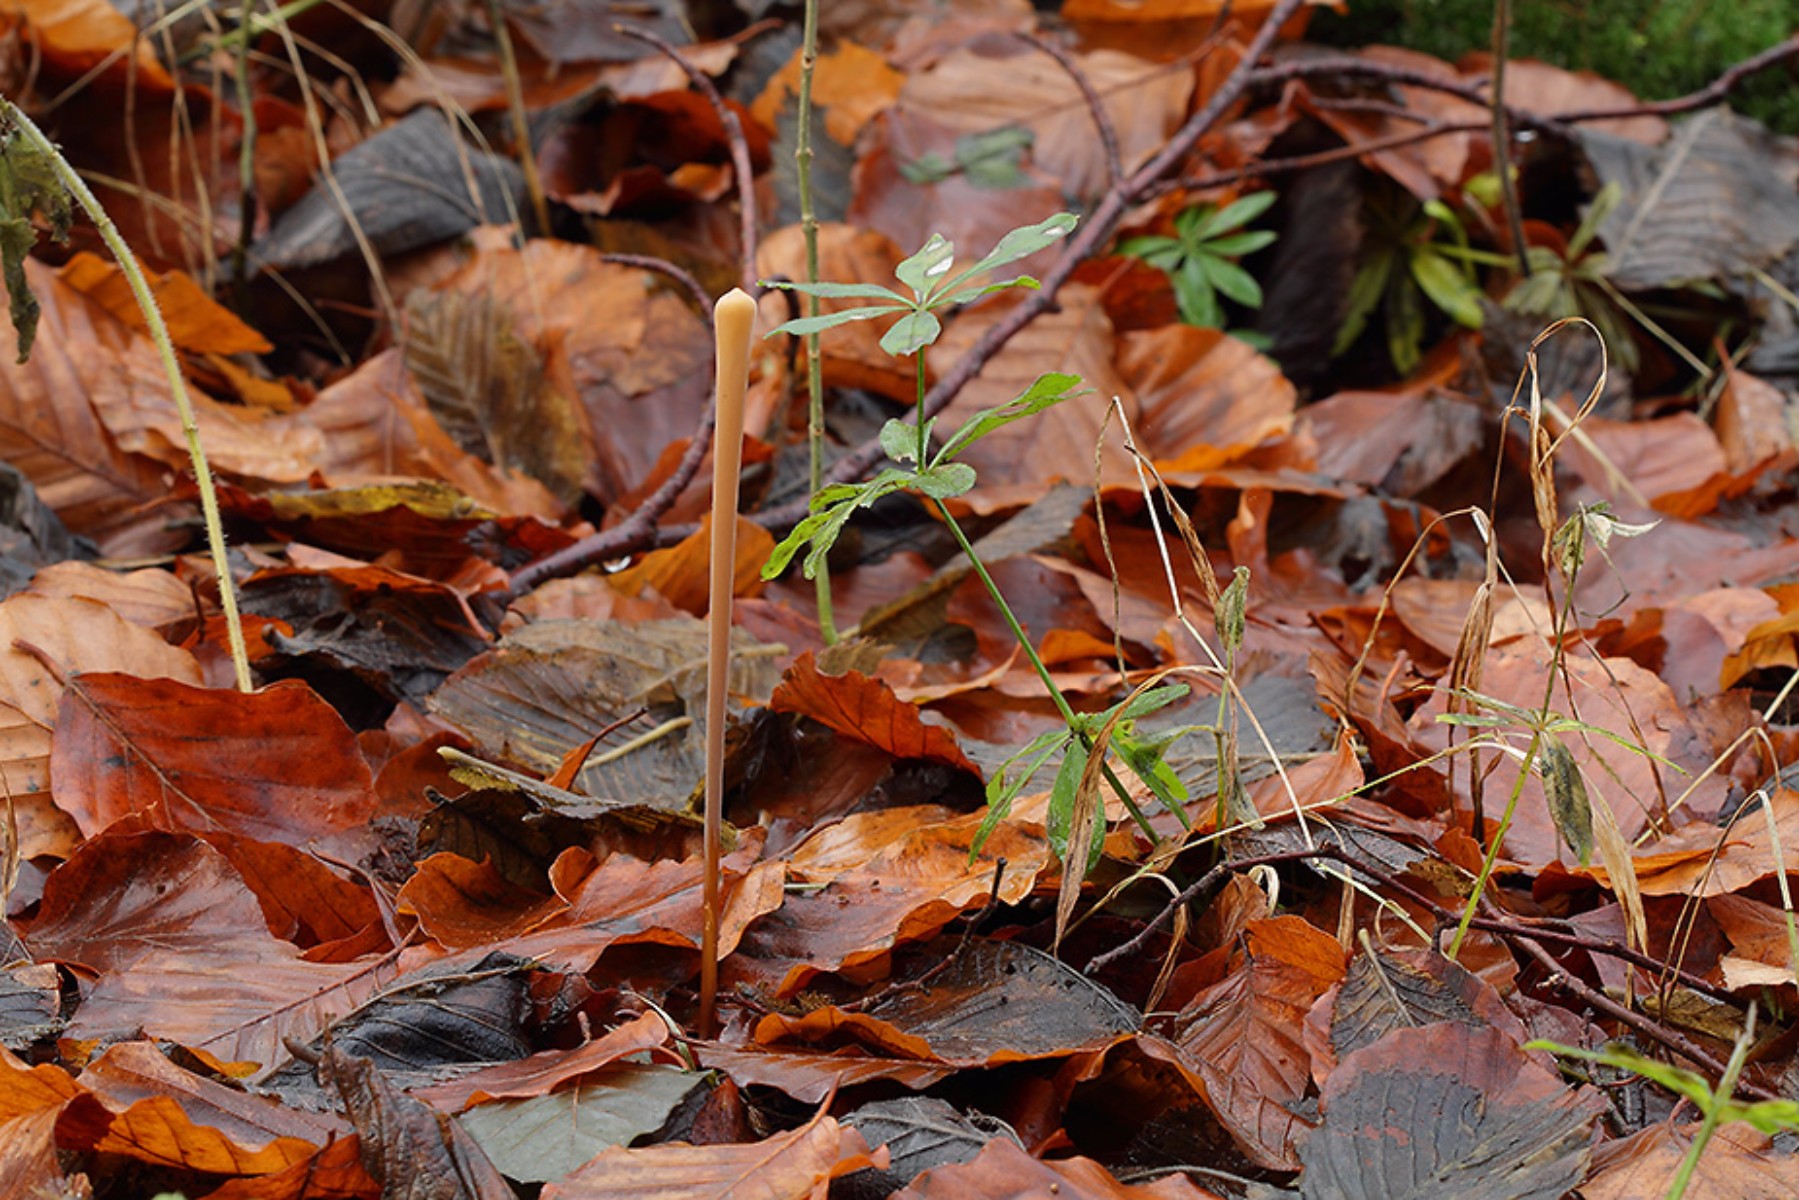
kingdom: Fungi
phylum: Basidiomycota
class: Agaricomycetes
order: Agaricales
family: Typhulaceae
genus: Typhula
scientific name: Typhula fistulosa
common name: pibet rørkølle
